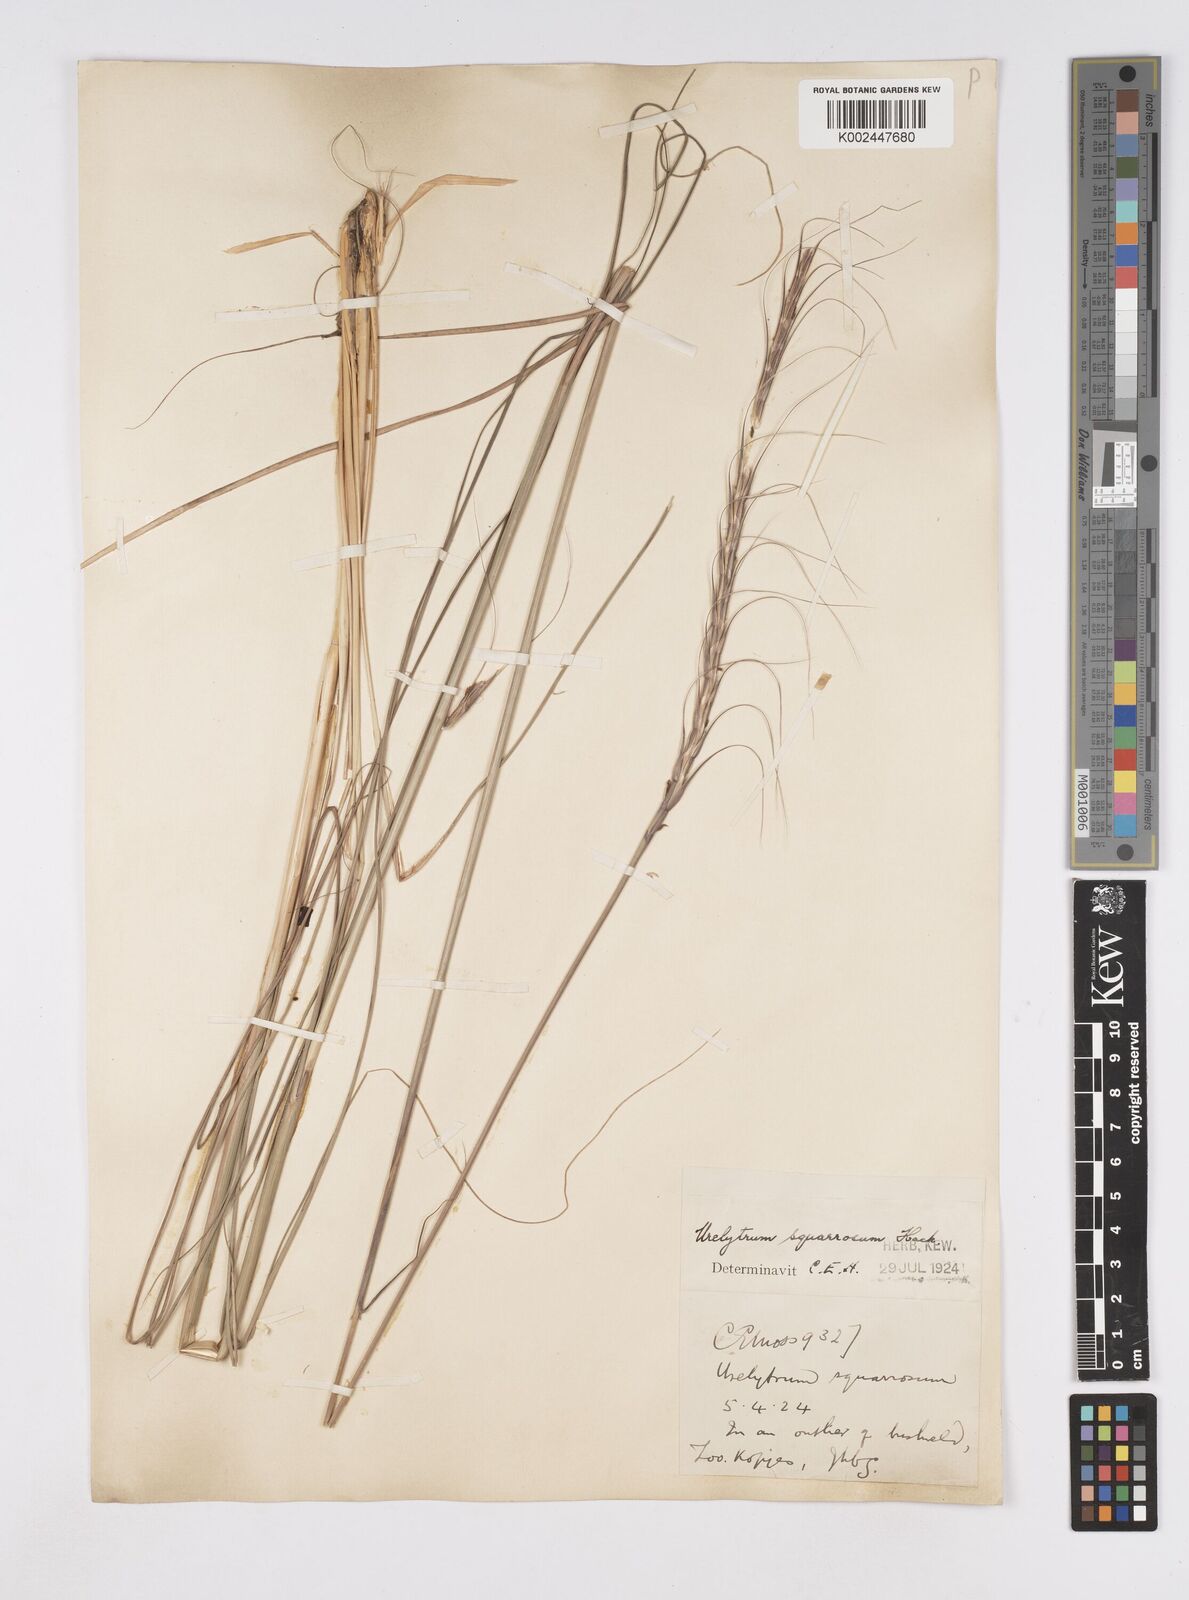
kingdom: Plantae
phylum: Tracheophyta
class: Liliopsida
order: Poales
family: Poaceae
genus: Urelytrum
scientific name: Urelytrum agropyroides
